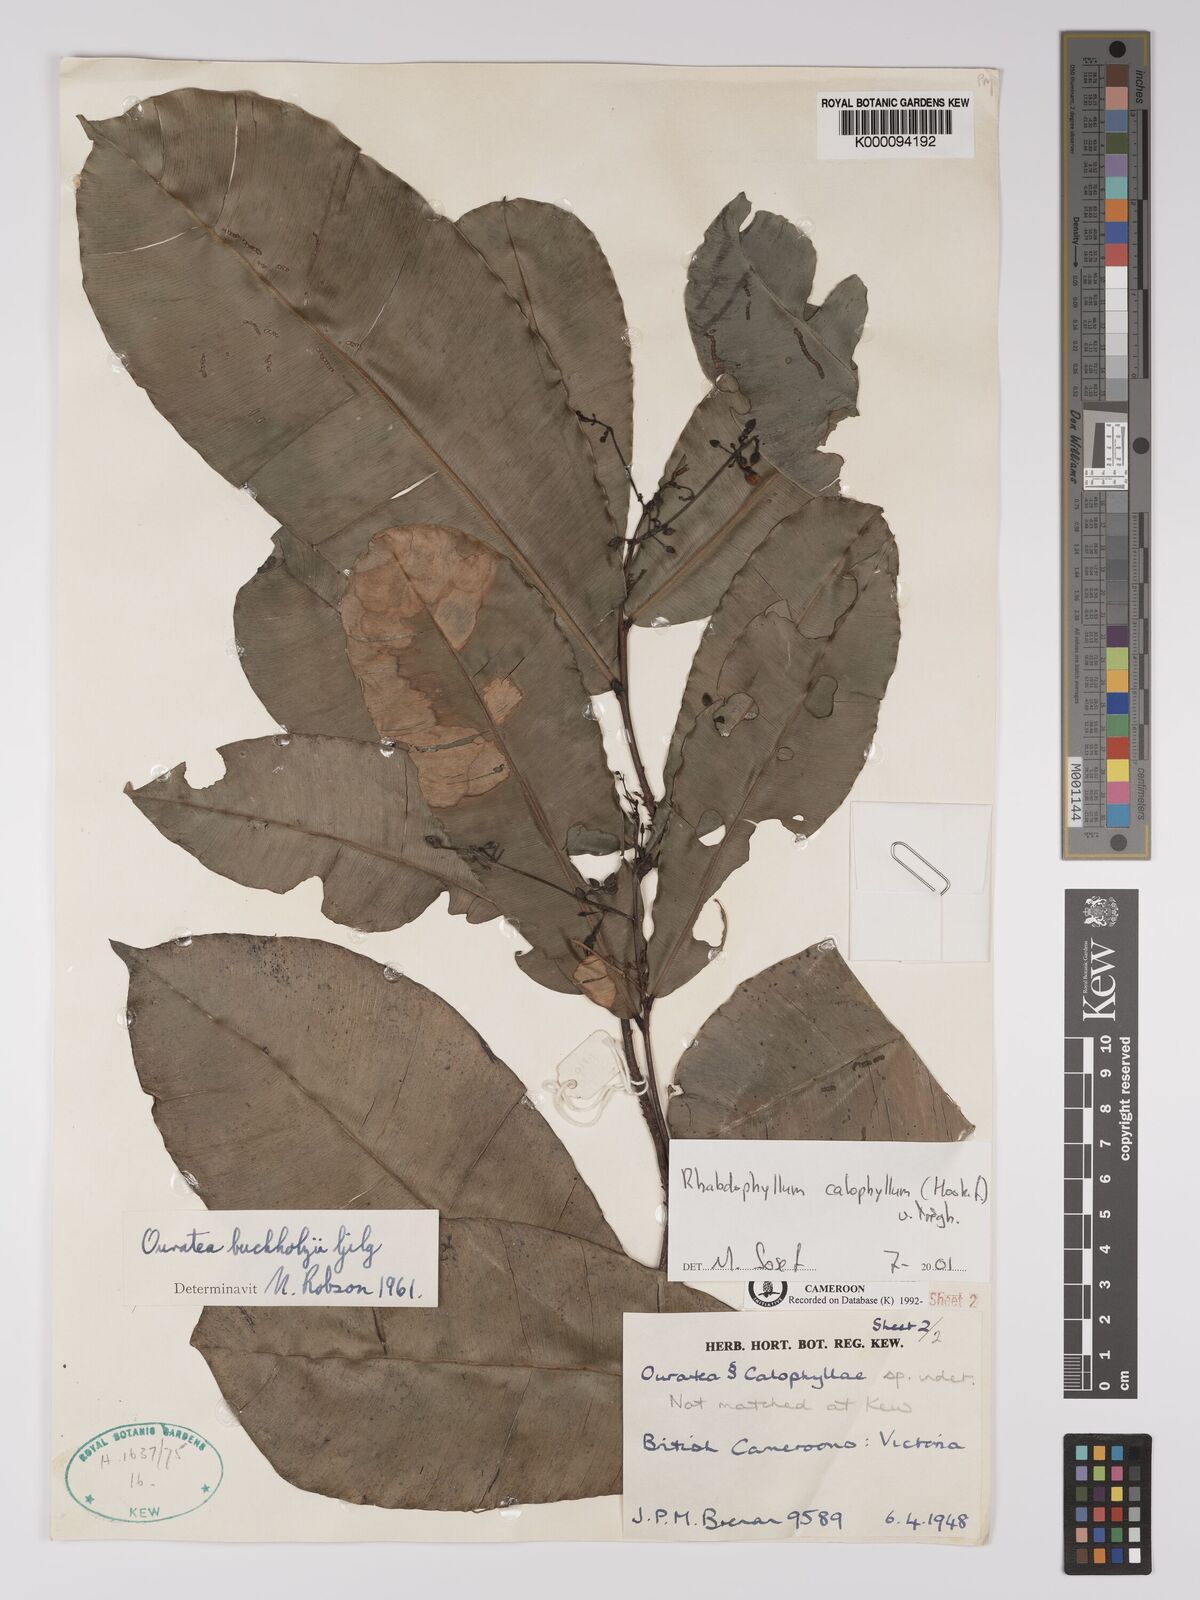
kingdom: Plantae
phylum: Tracheophyta
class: Magnoliopsida
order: Malpighiales
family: Ochnaceae
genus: Rhabdophyllum
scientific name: Rhabdophyllum
